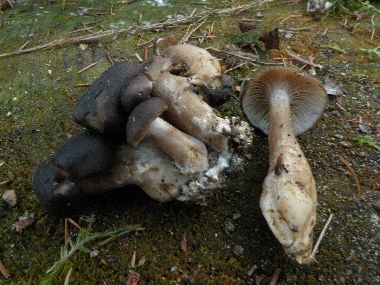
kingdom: Fungi
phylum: Basidiomycota
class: Agaricomycetes
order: Agaricales
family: Lyophyllaceae
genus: Lyophyllum
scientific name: Lyophyllum decastes
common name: Clustered domecap
